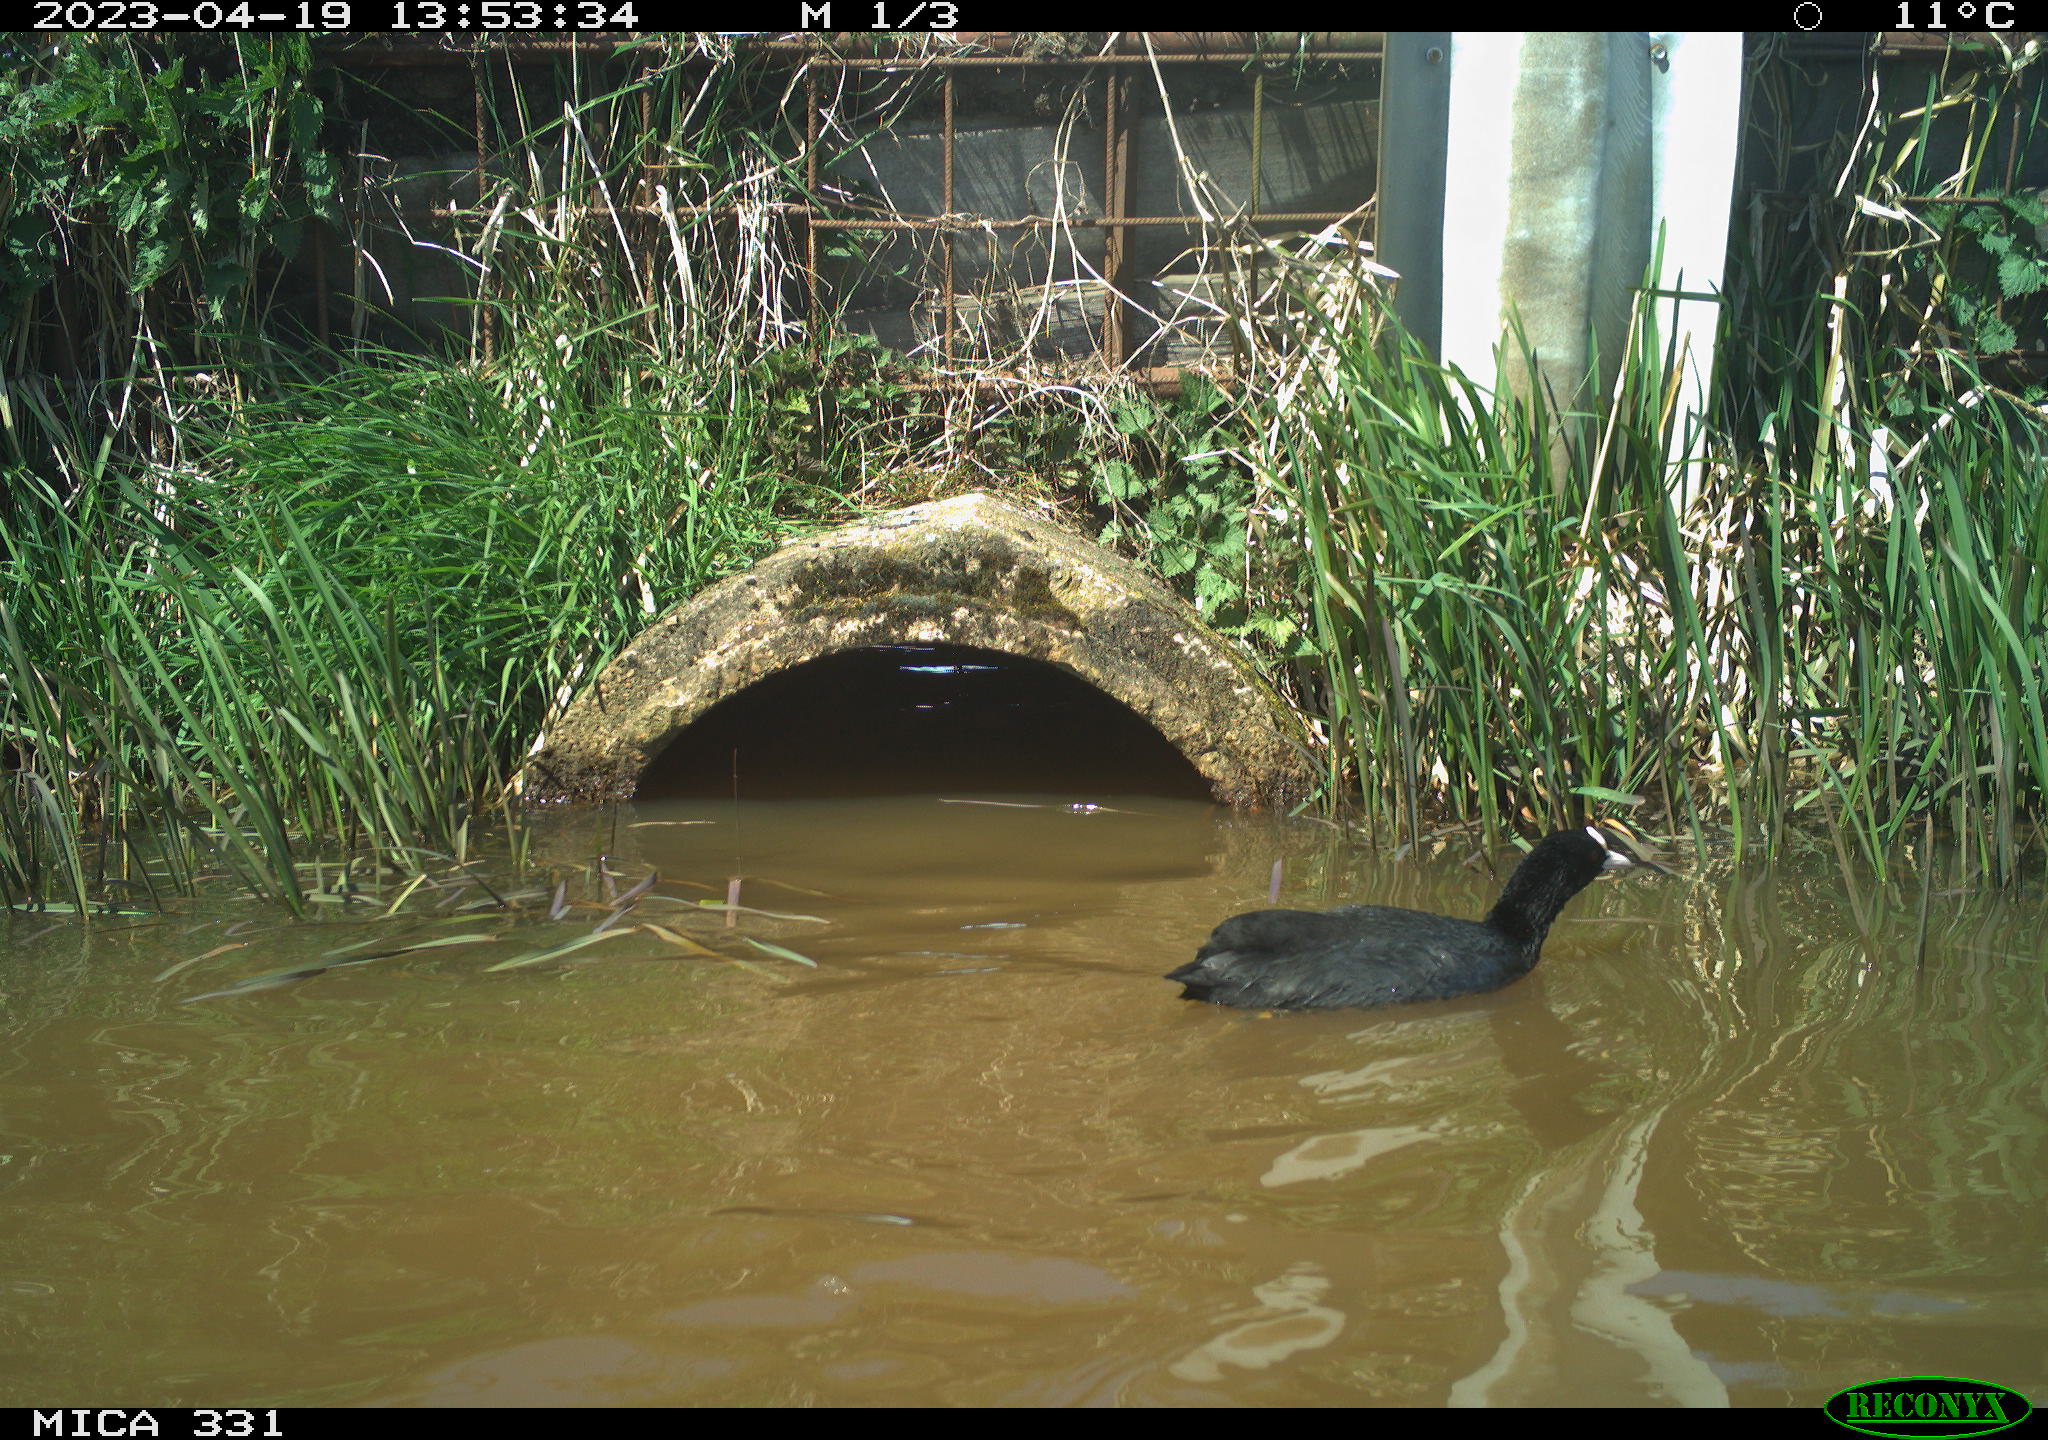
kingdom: Animalia
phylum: Chordata
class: Aves
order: Gruiformes
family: Rallidae
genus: Fulica
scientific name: Fulica atra
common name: Eurasian coot
